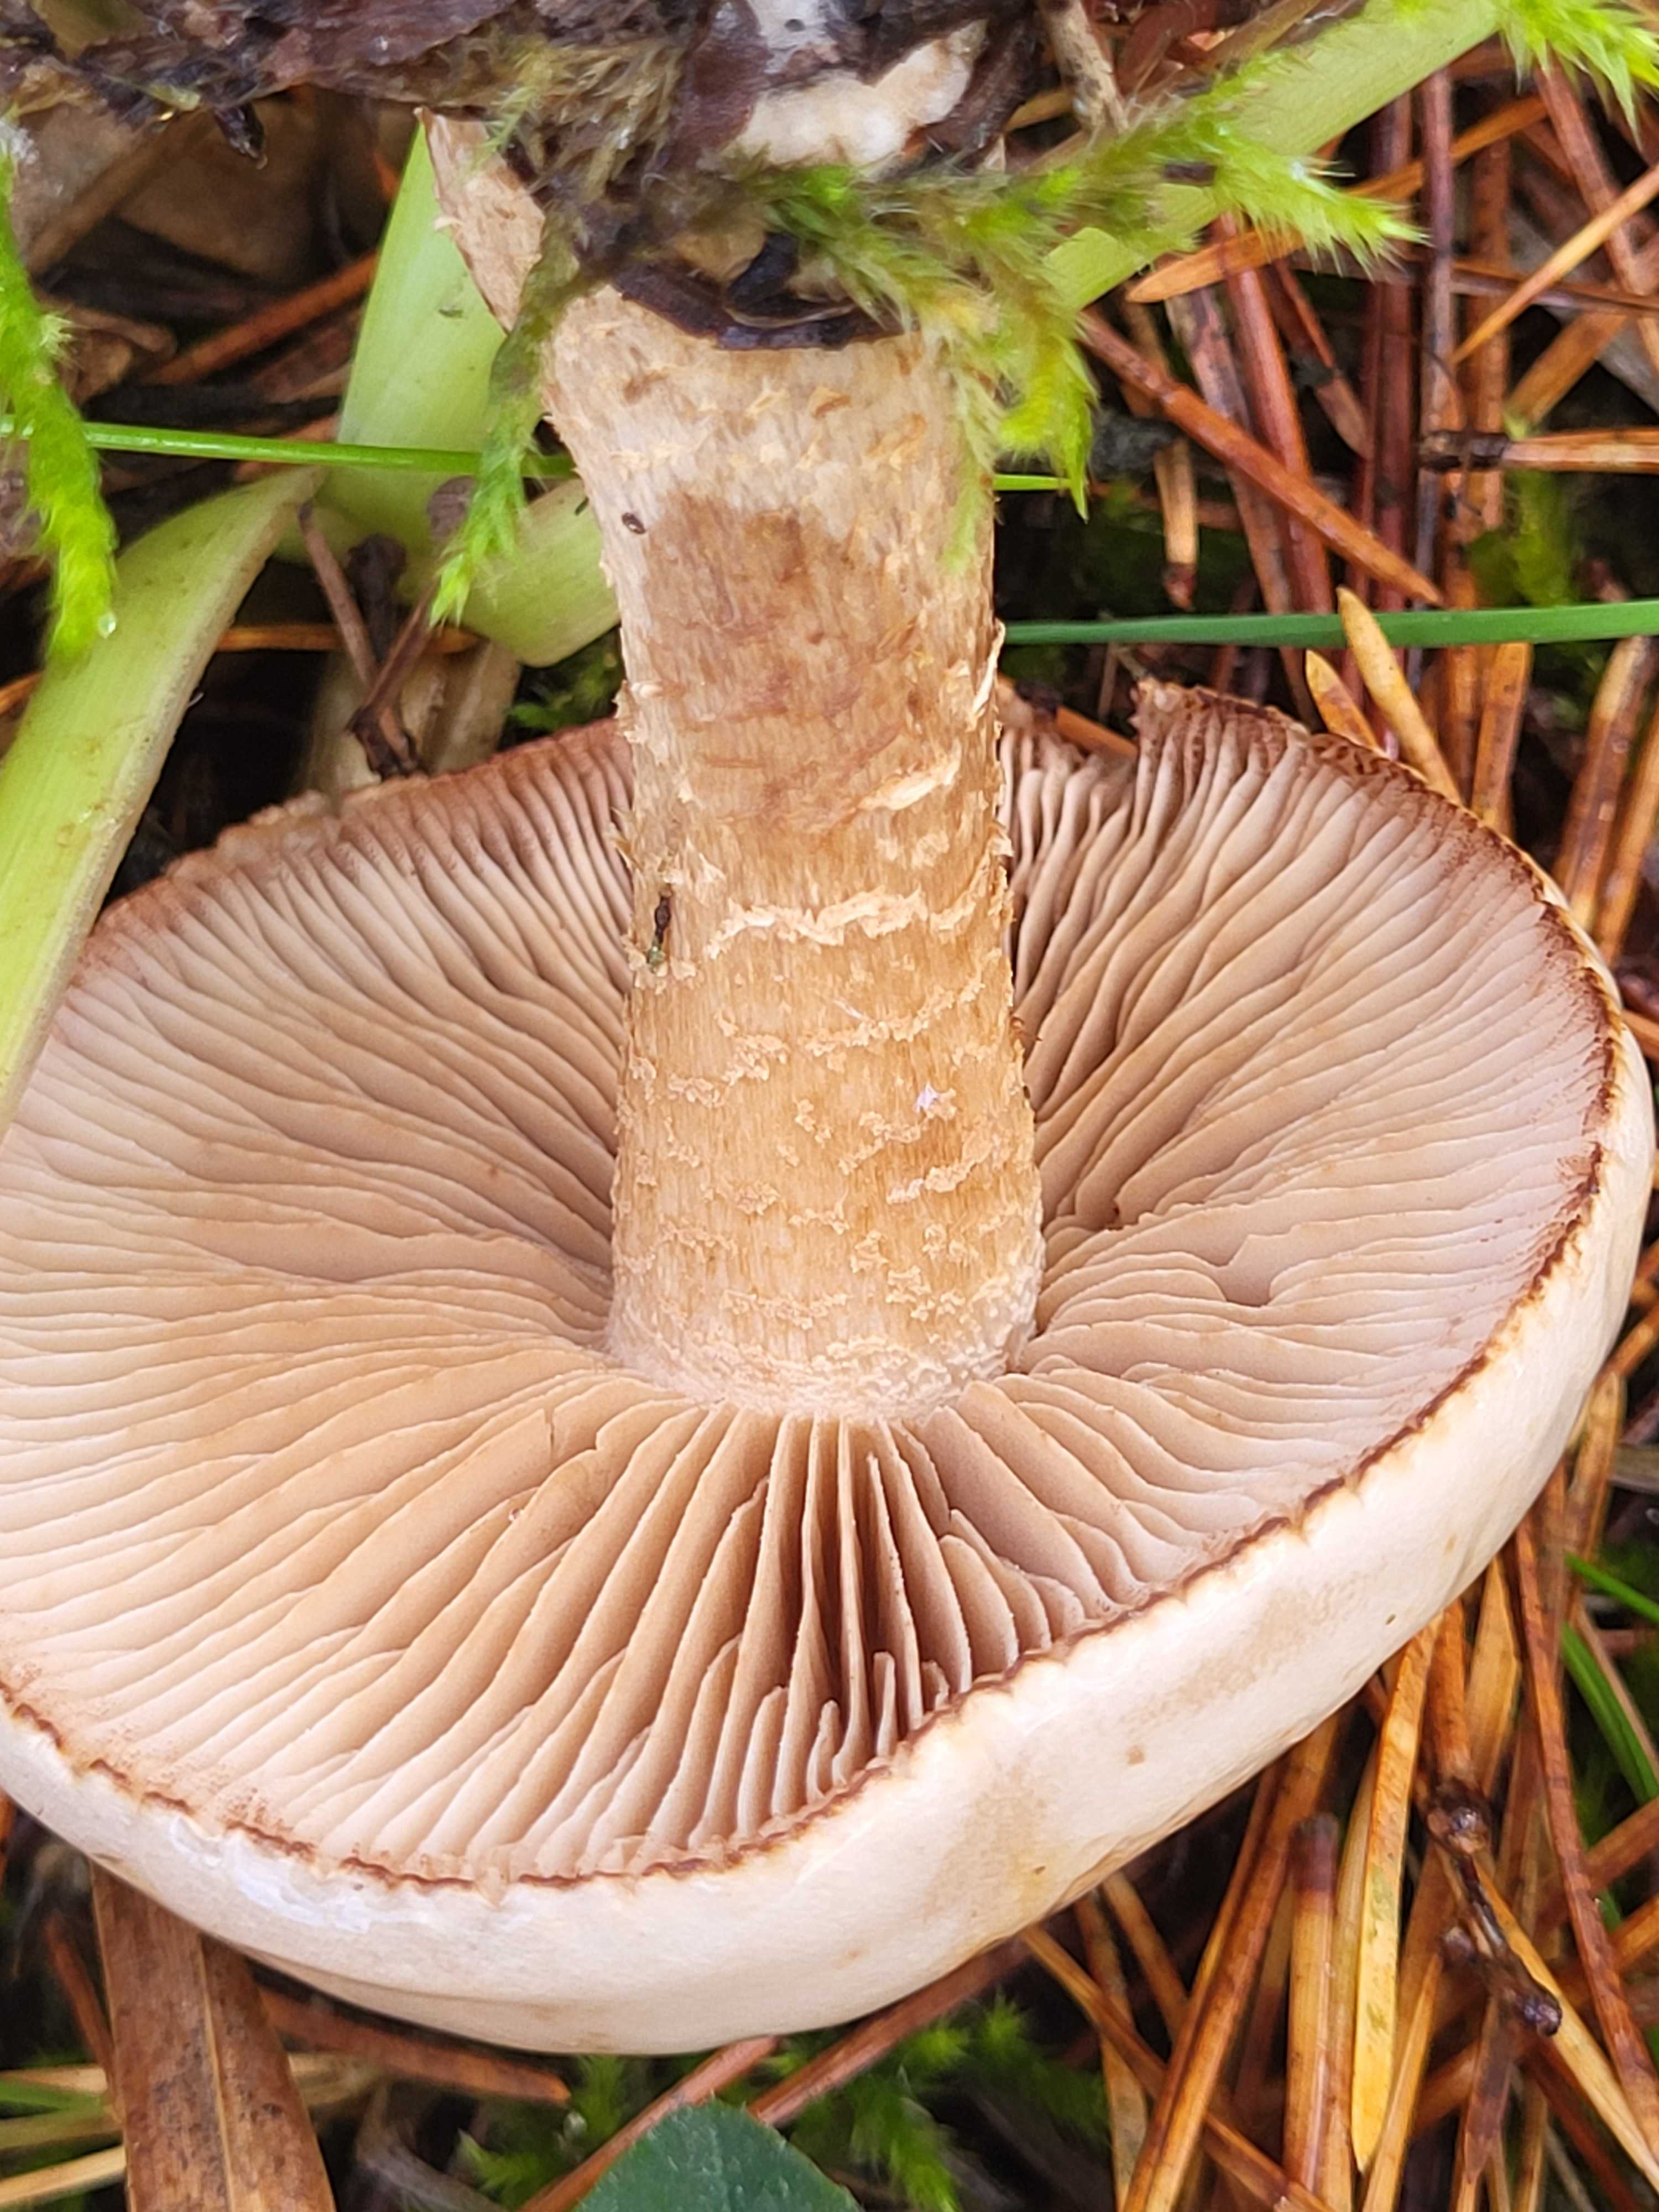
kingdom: Fungi
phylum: Basidiomycota
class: Agaricomycetes
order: Agaricales
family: Hymenogastraceae
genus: Hebeloma
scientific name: Hebeloma
